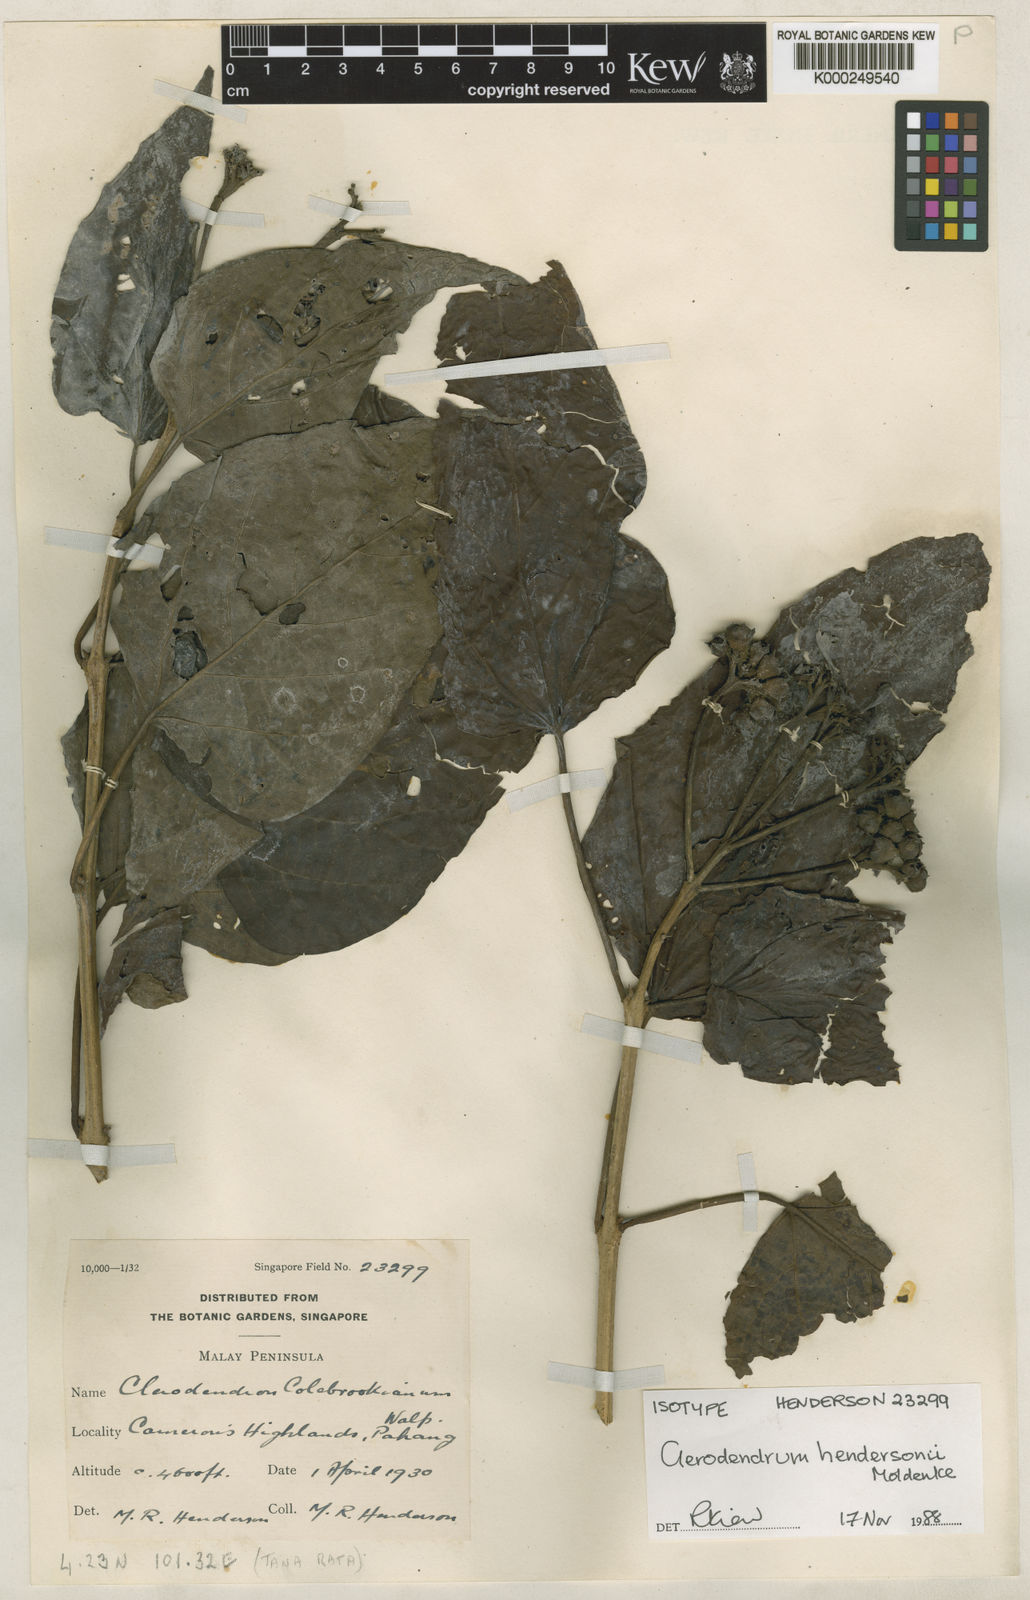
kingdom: Plantae
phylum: Tracheophyta
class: Magnoliopsida
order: Lamiales
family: Lamiaceae
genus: Clerodendrum
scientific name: Clerodendrum hendersonii
